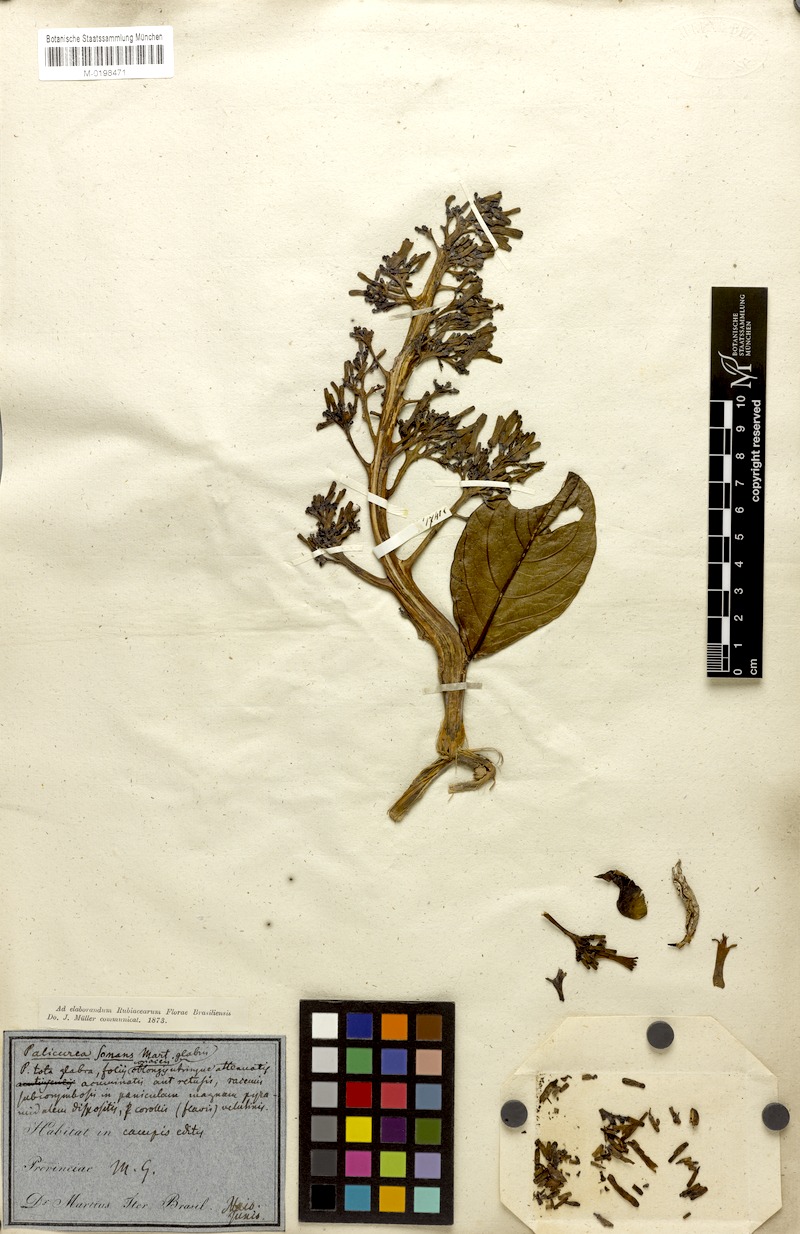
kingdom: Plantae
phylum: Tracheophyta
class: Magnoliopsida
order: Gentianales
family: Rubiaceae
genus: Palicourea
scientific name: Palicourea rigida
